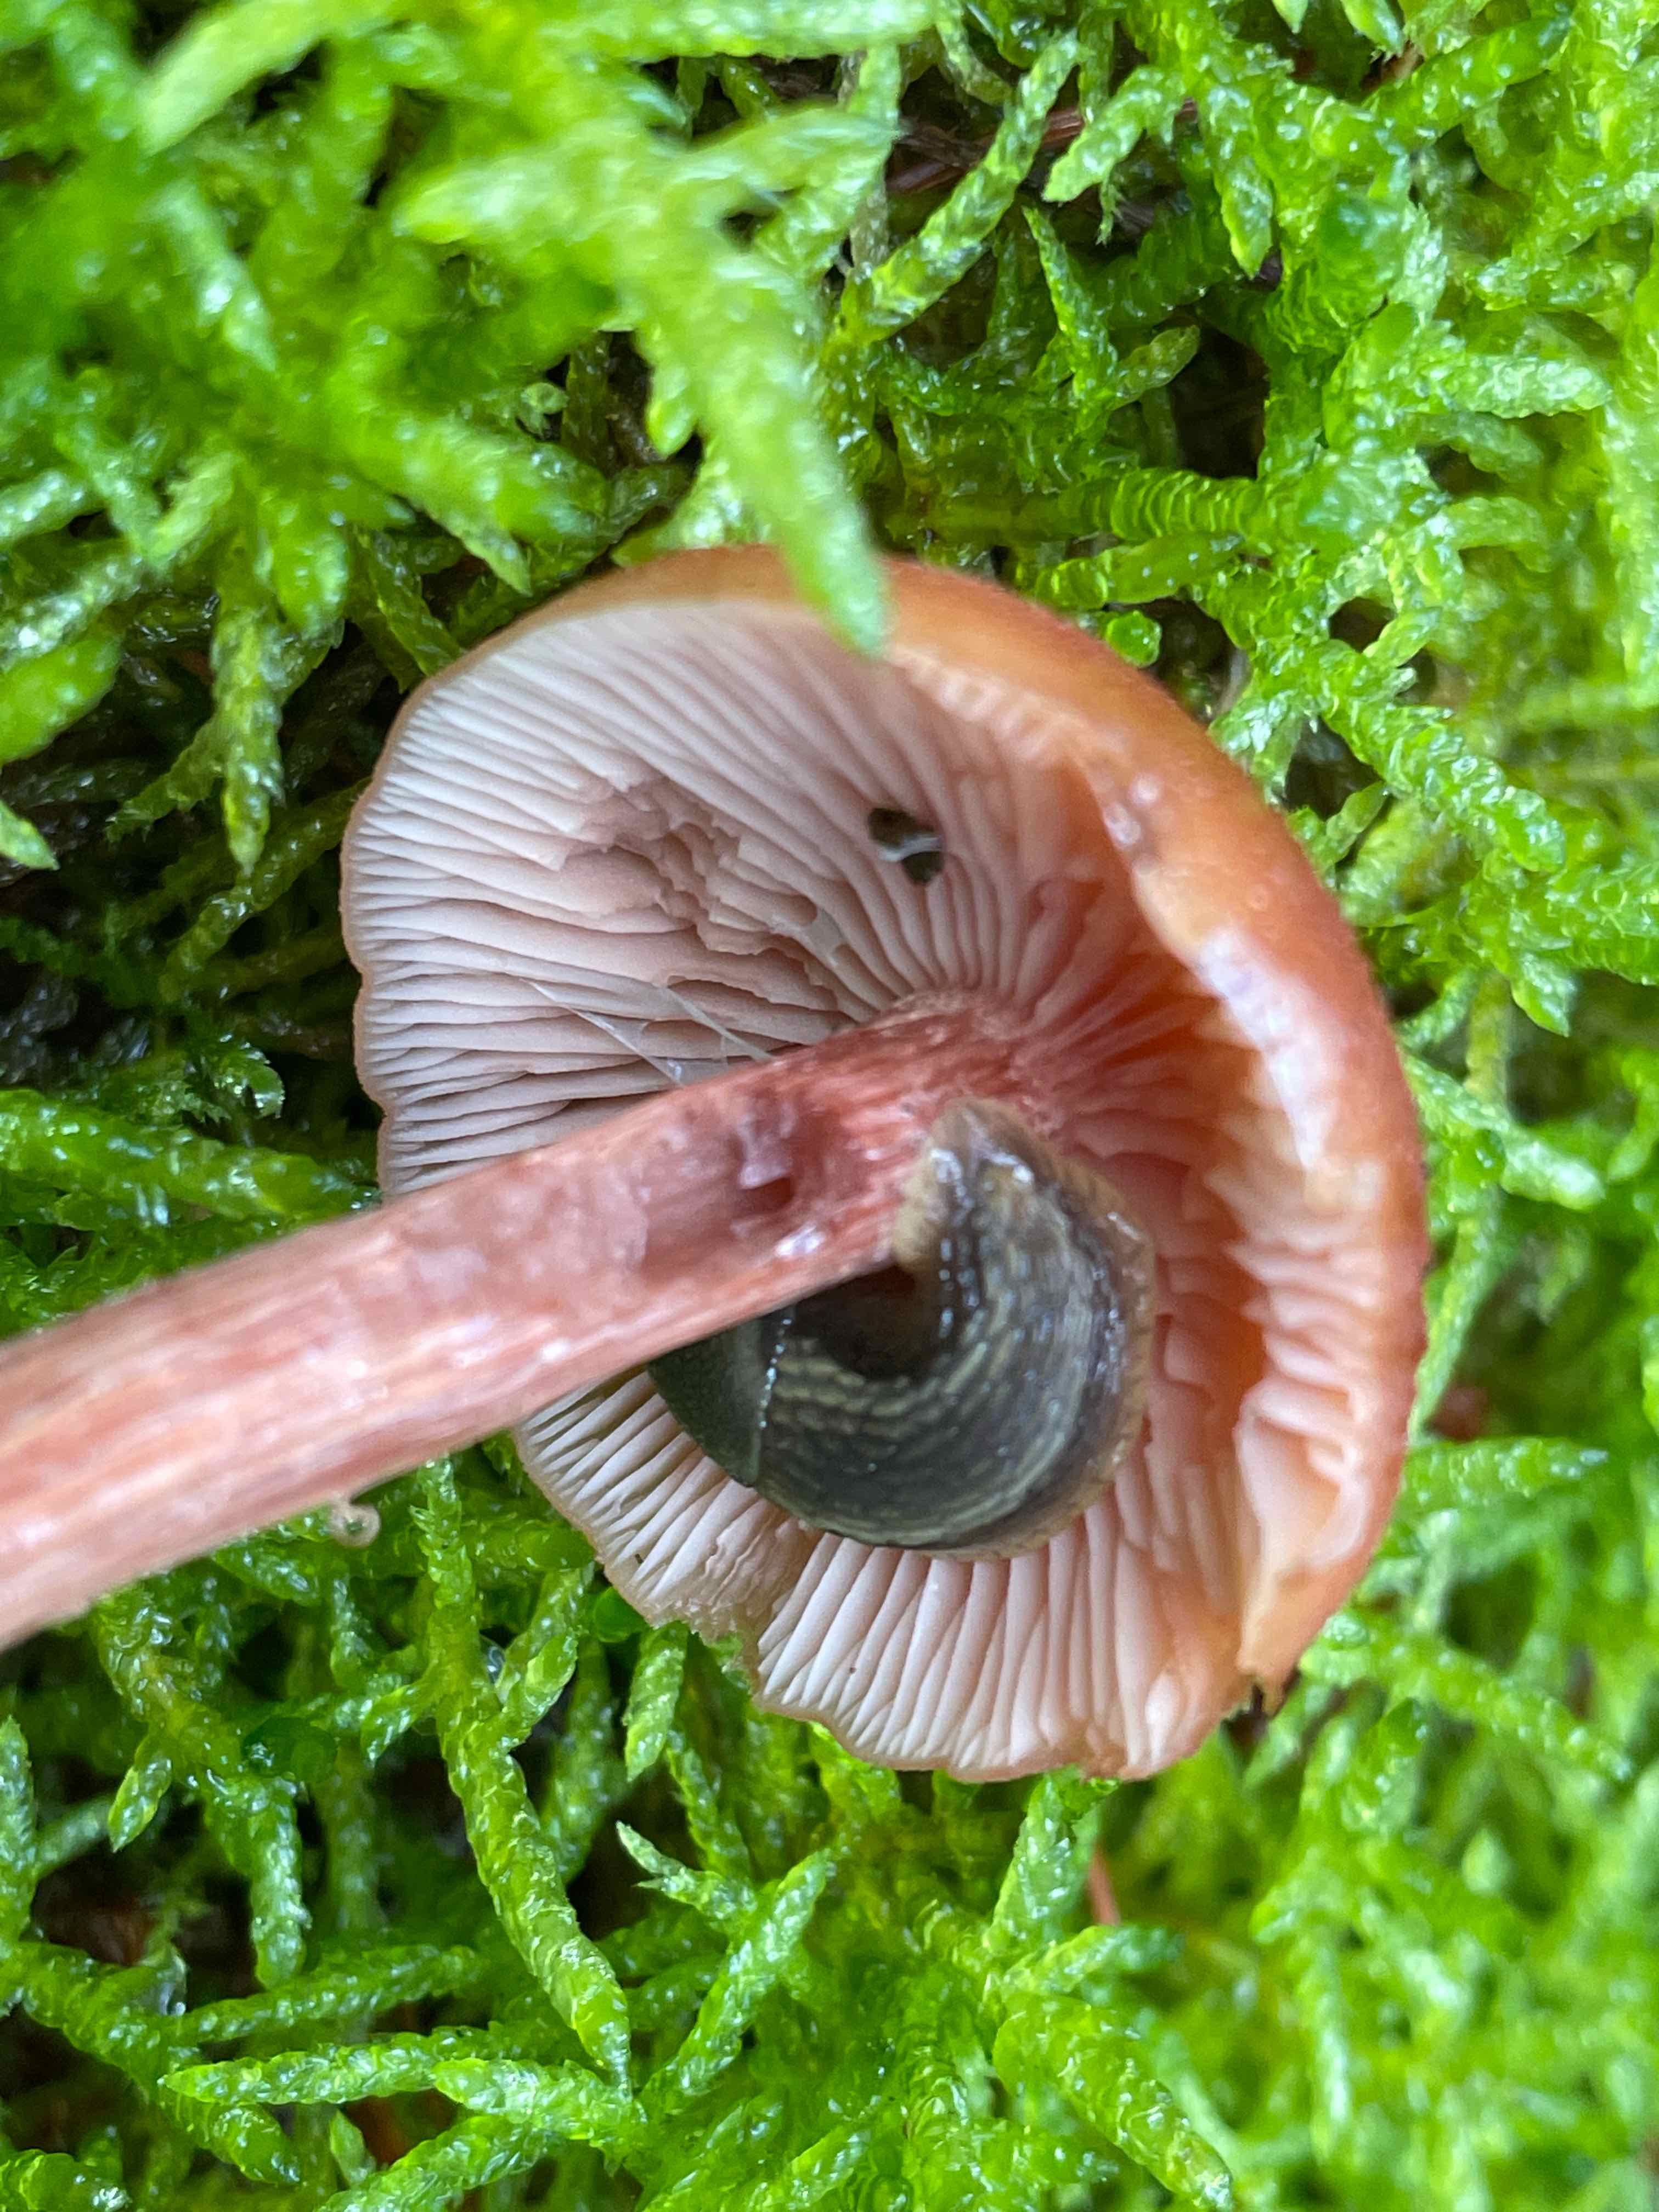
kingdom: Fungi
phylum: Basidiomycota
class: Agaricomycetes
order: Agaricales
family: Hydnangiaceae
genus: Laccaria
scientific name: Laccaria proxima
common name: stor ametysthat
